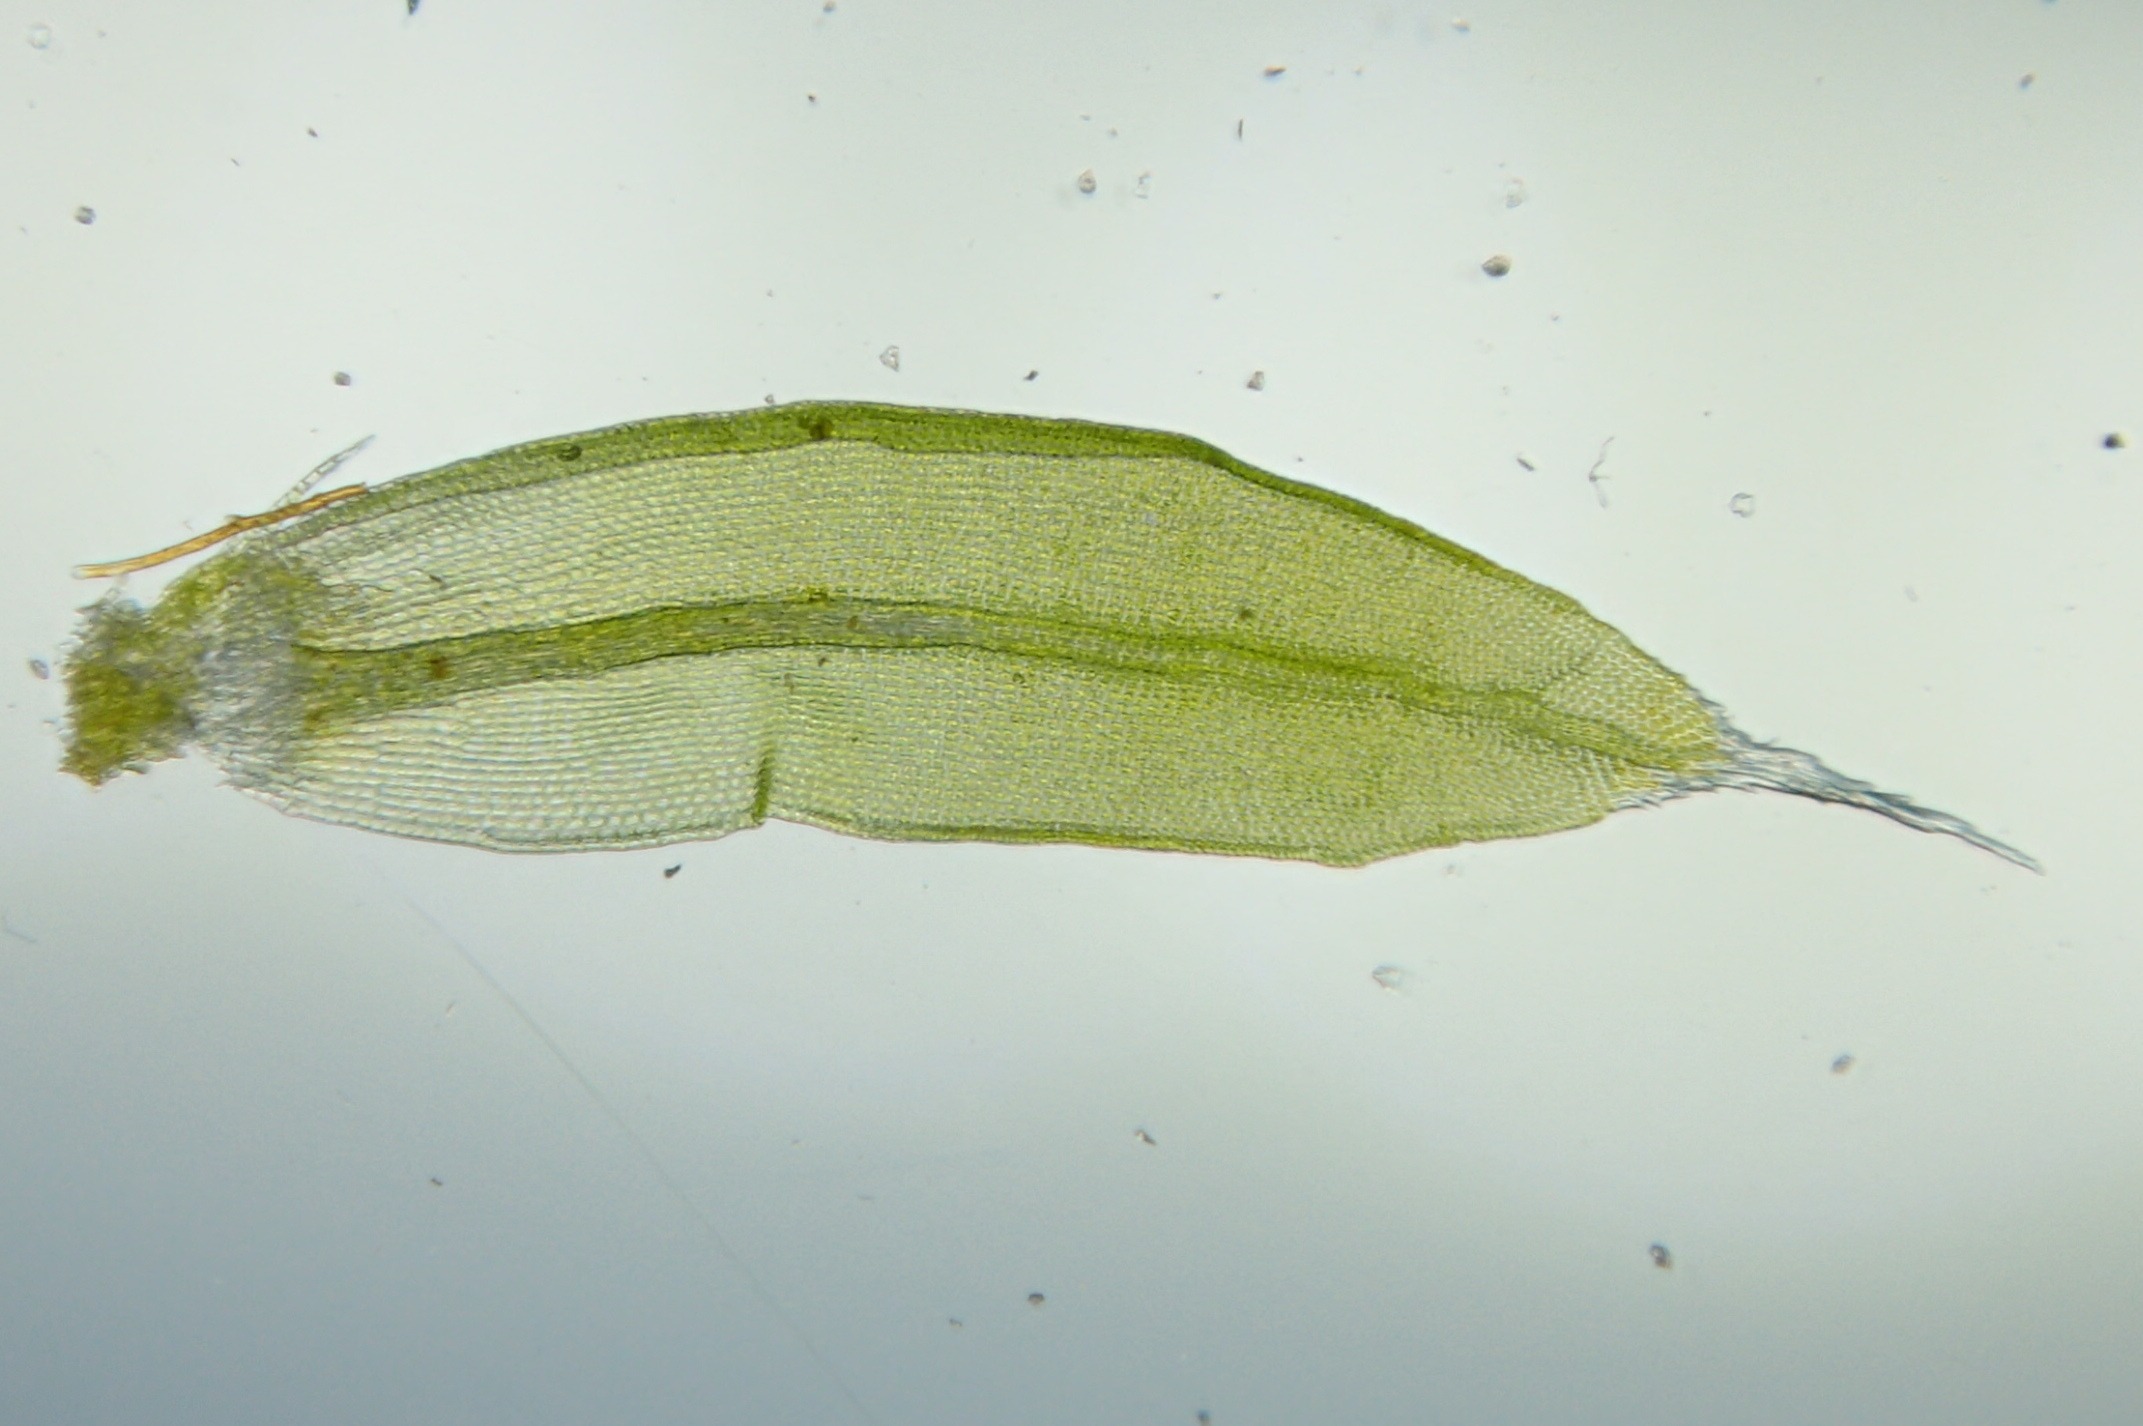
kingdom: Plantae
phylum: Bryophyta
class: Bryopsida
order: Orthotrichales
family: Orthotrichaceae
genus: Orthotrichum
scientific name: Orthotrichum diaphanum
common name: Hårspidset furehætte
